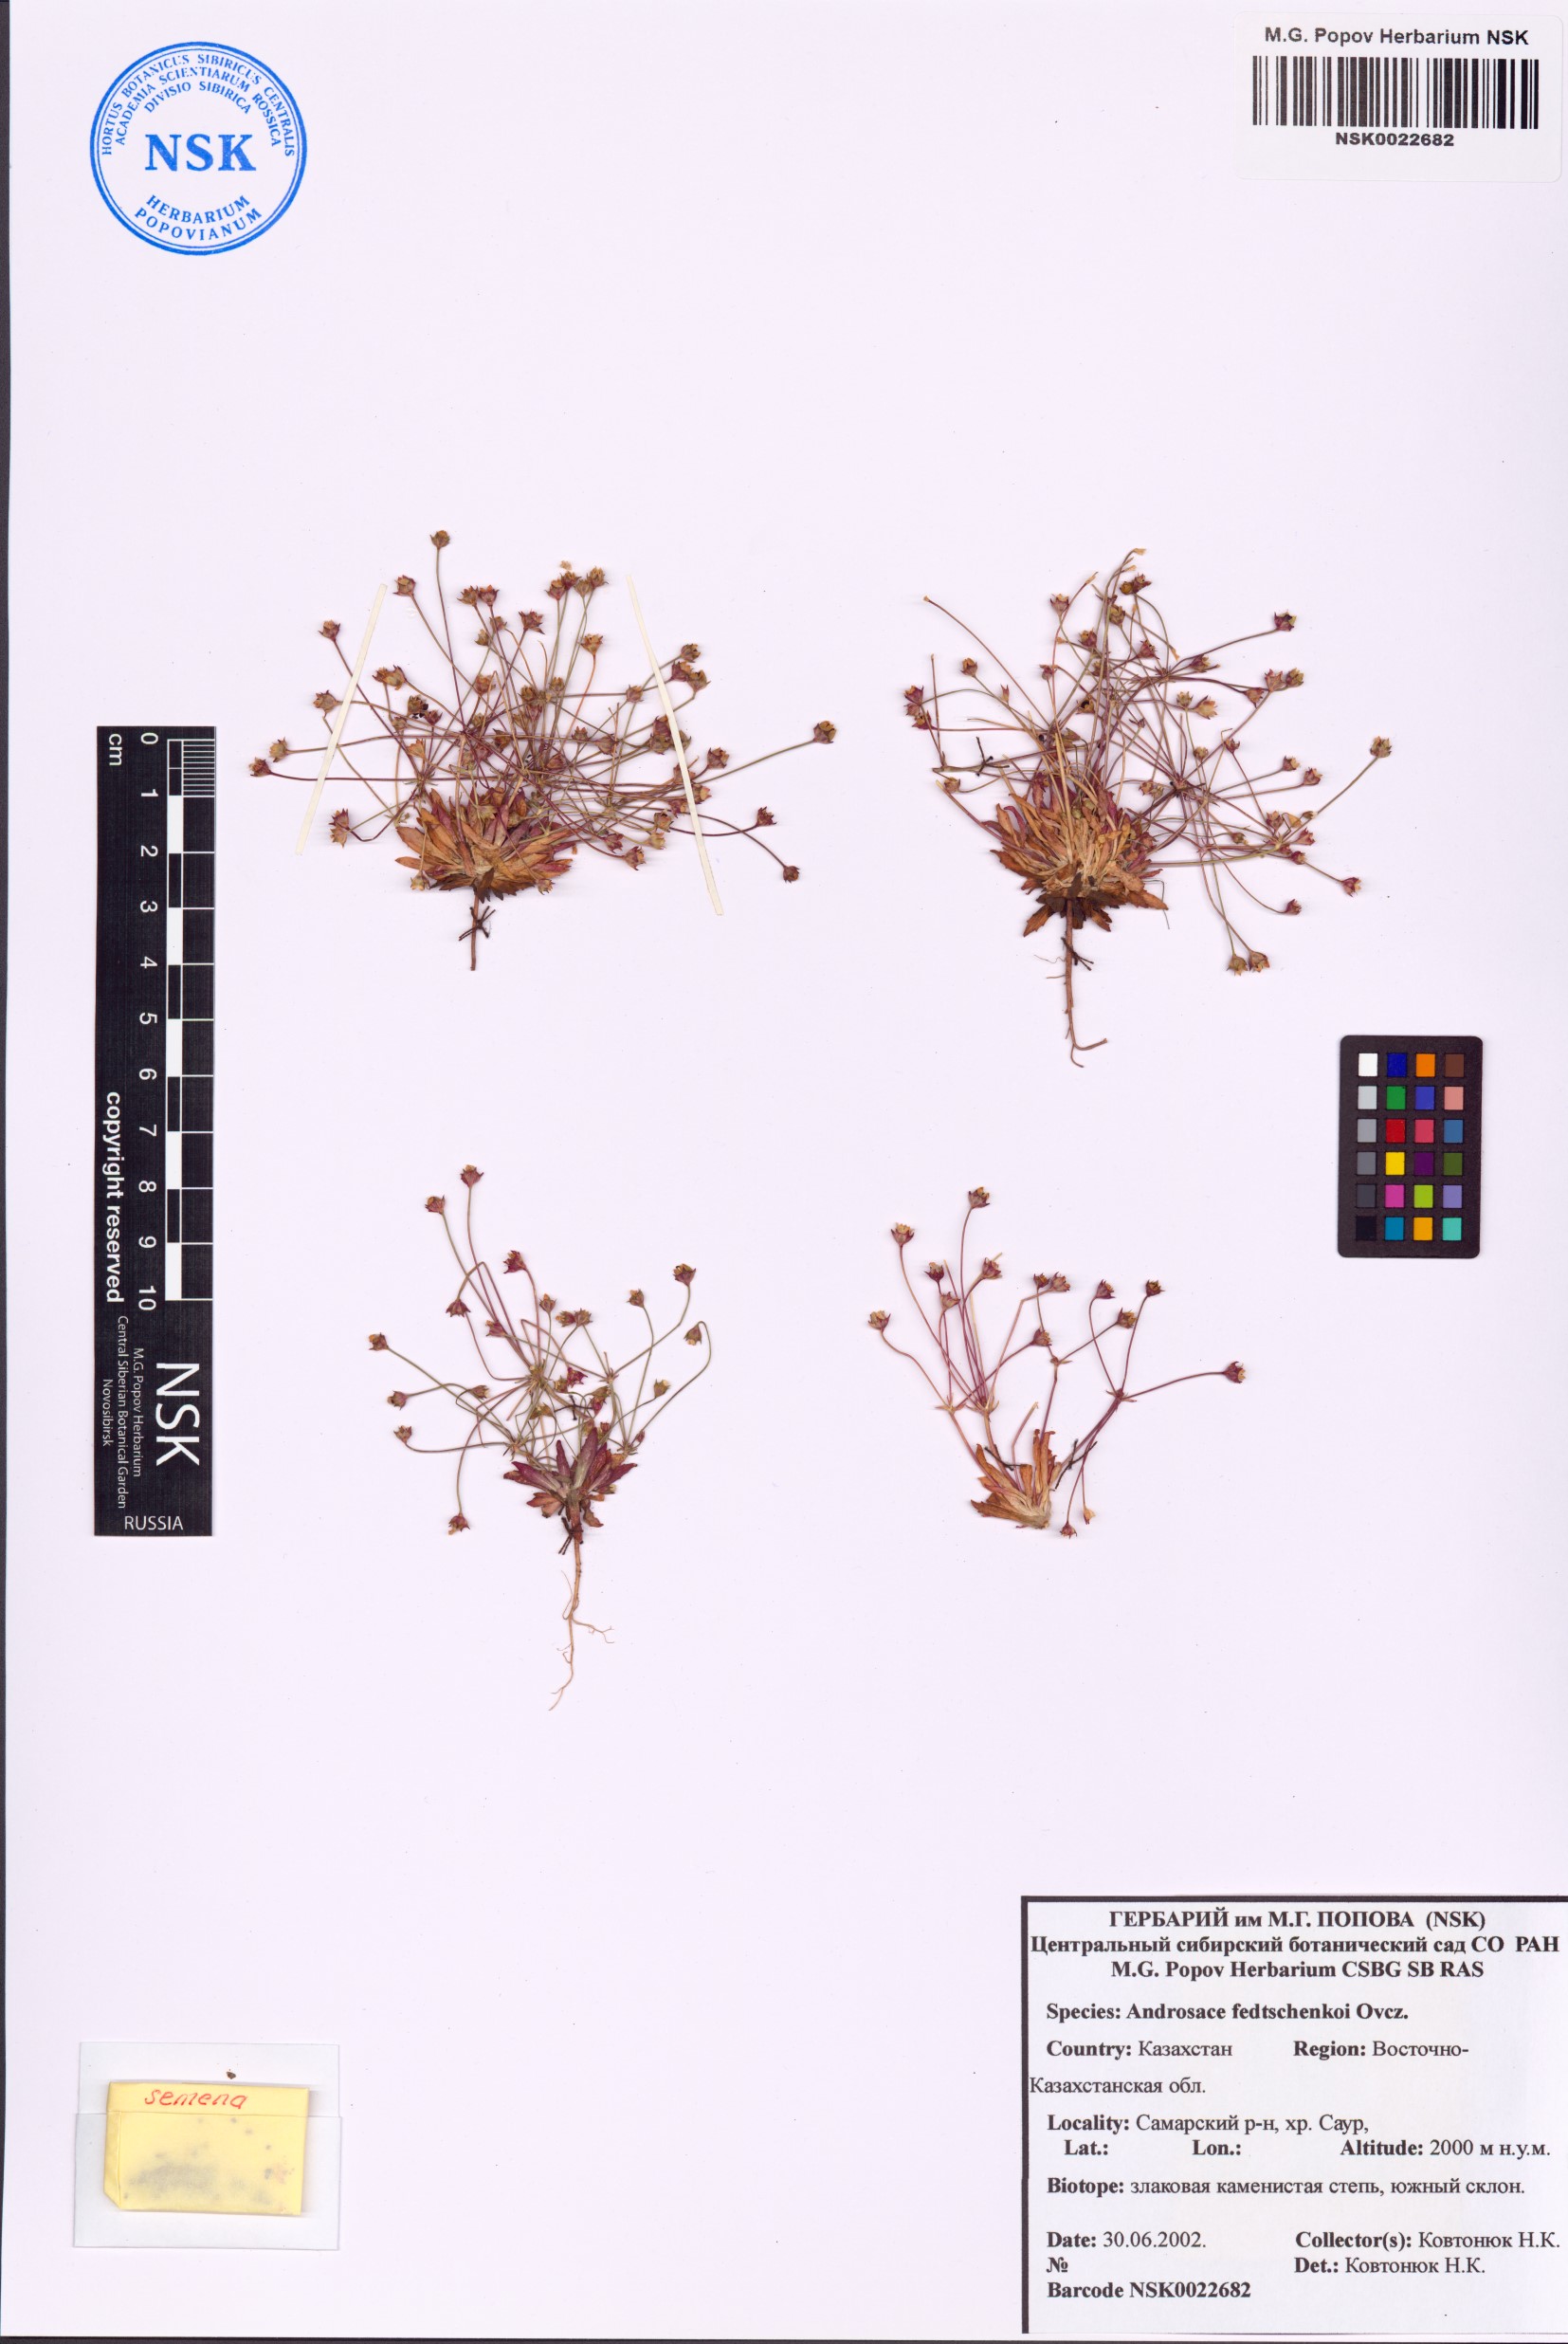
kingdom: Plantae
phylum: Tracheophyta
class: Magnoliopsida
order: Ericales
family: Primulaceae
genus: Androsace
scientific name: Androsace fedtschenkoi
